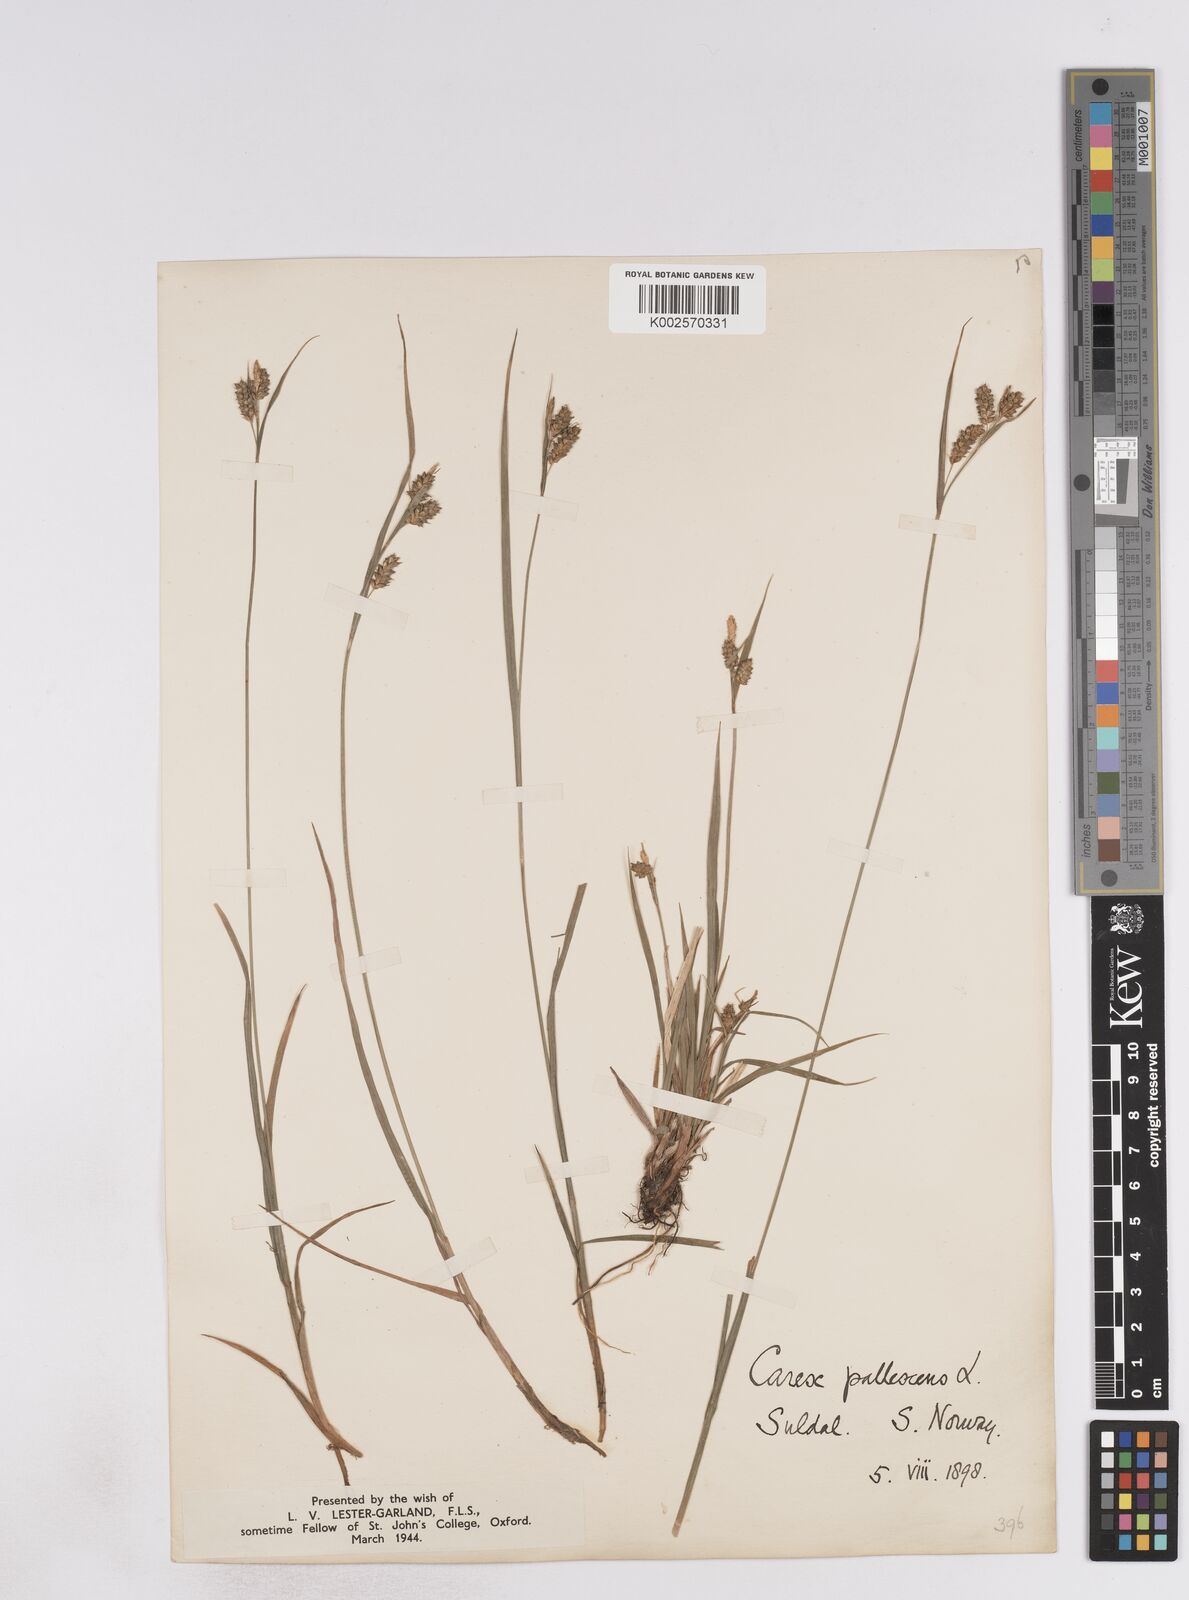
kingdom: Plantae
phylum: Tracheophyta
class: Liliopsida
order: Poales
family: Cyperaceae
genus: Carex
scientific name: Carex pallescens
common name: Pale sedge
